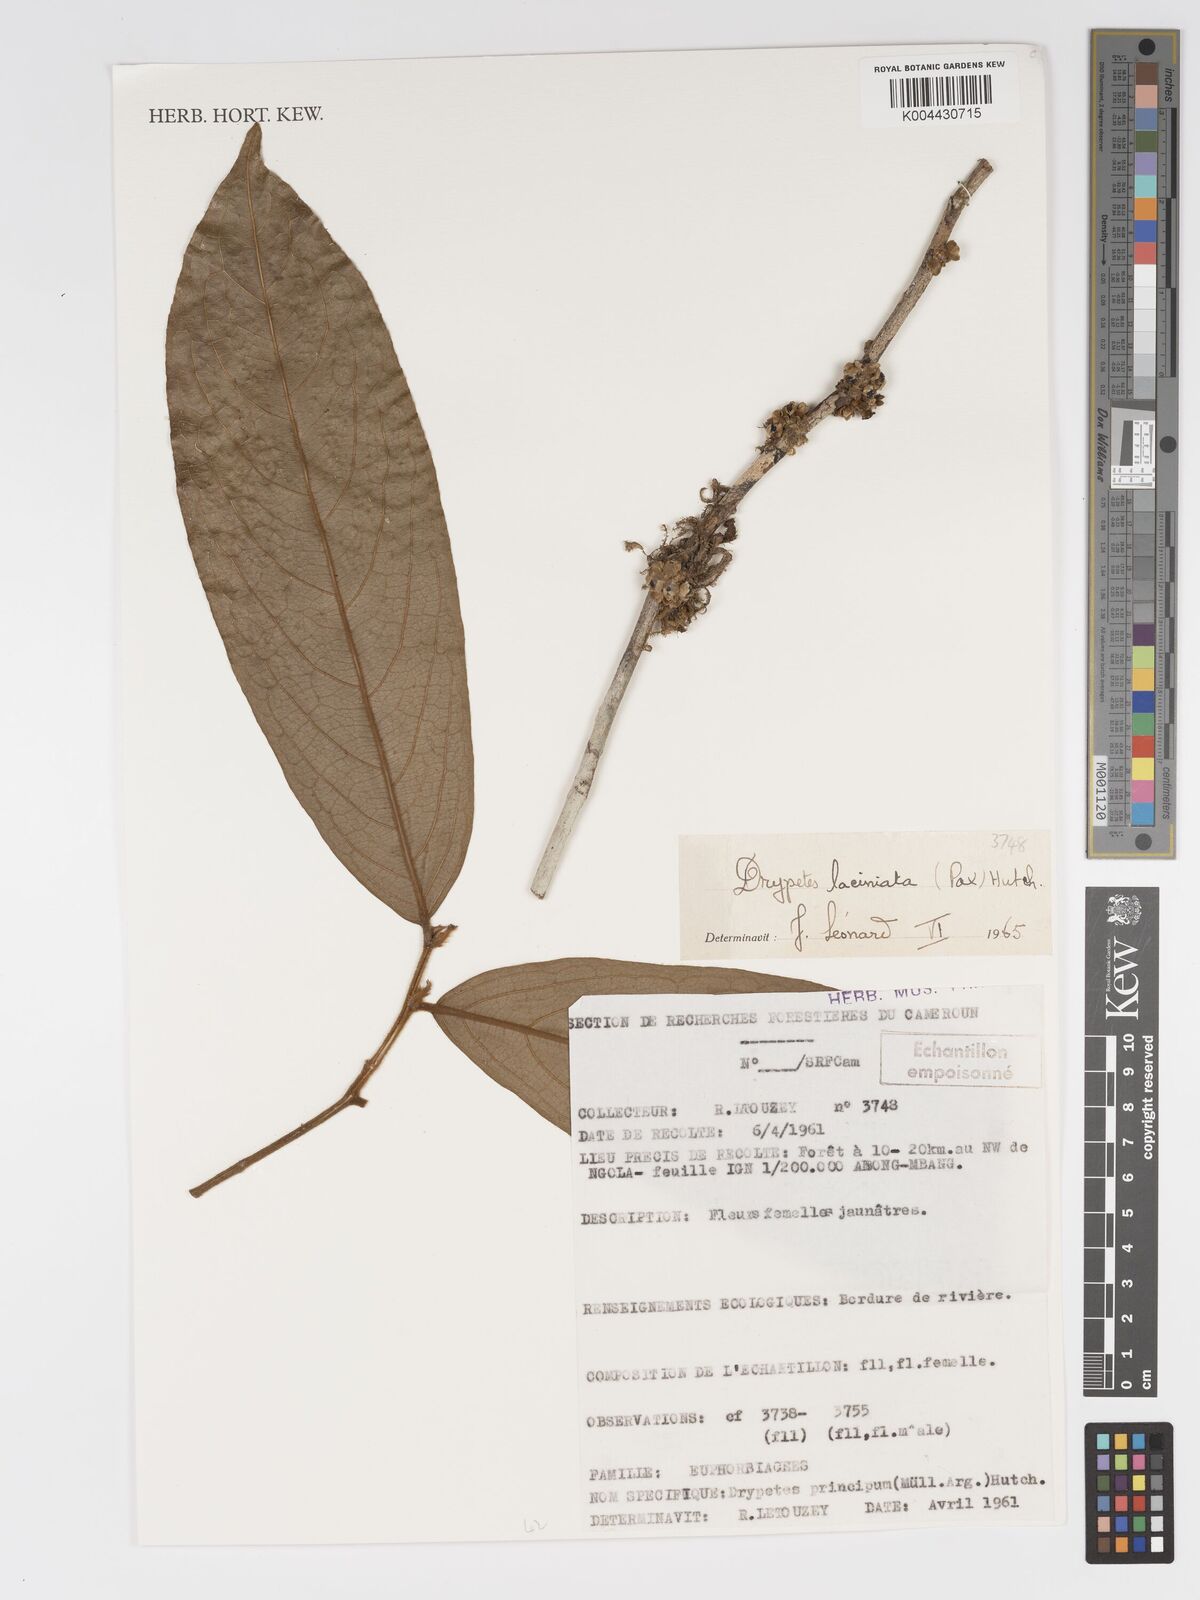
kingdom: Plantae
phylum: Tracheophyta
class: Magnoliopsida
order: Malpighiales
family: Putranjivaceae
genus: Drypetes
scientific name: Drypetes laciniata
